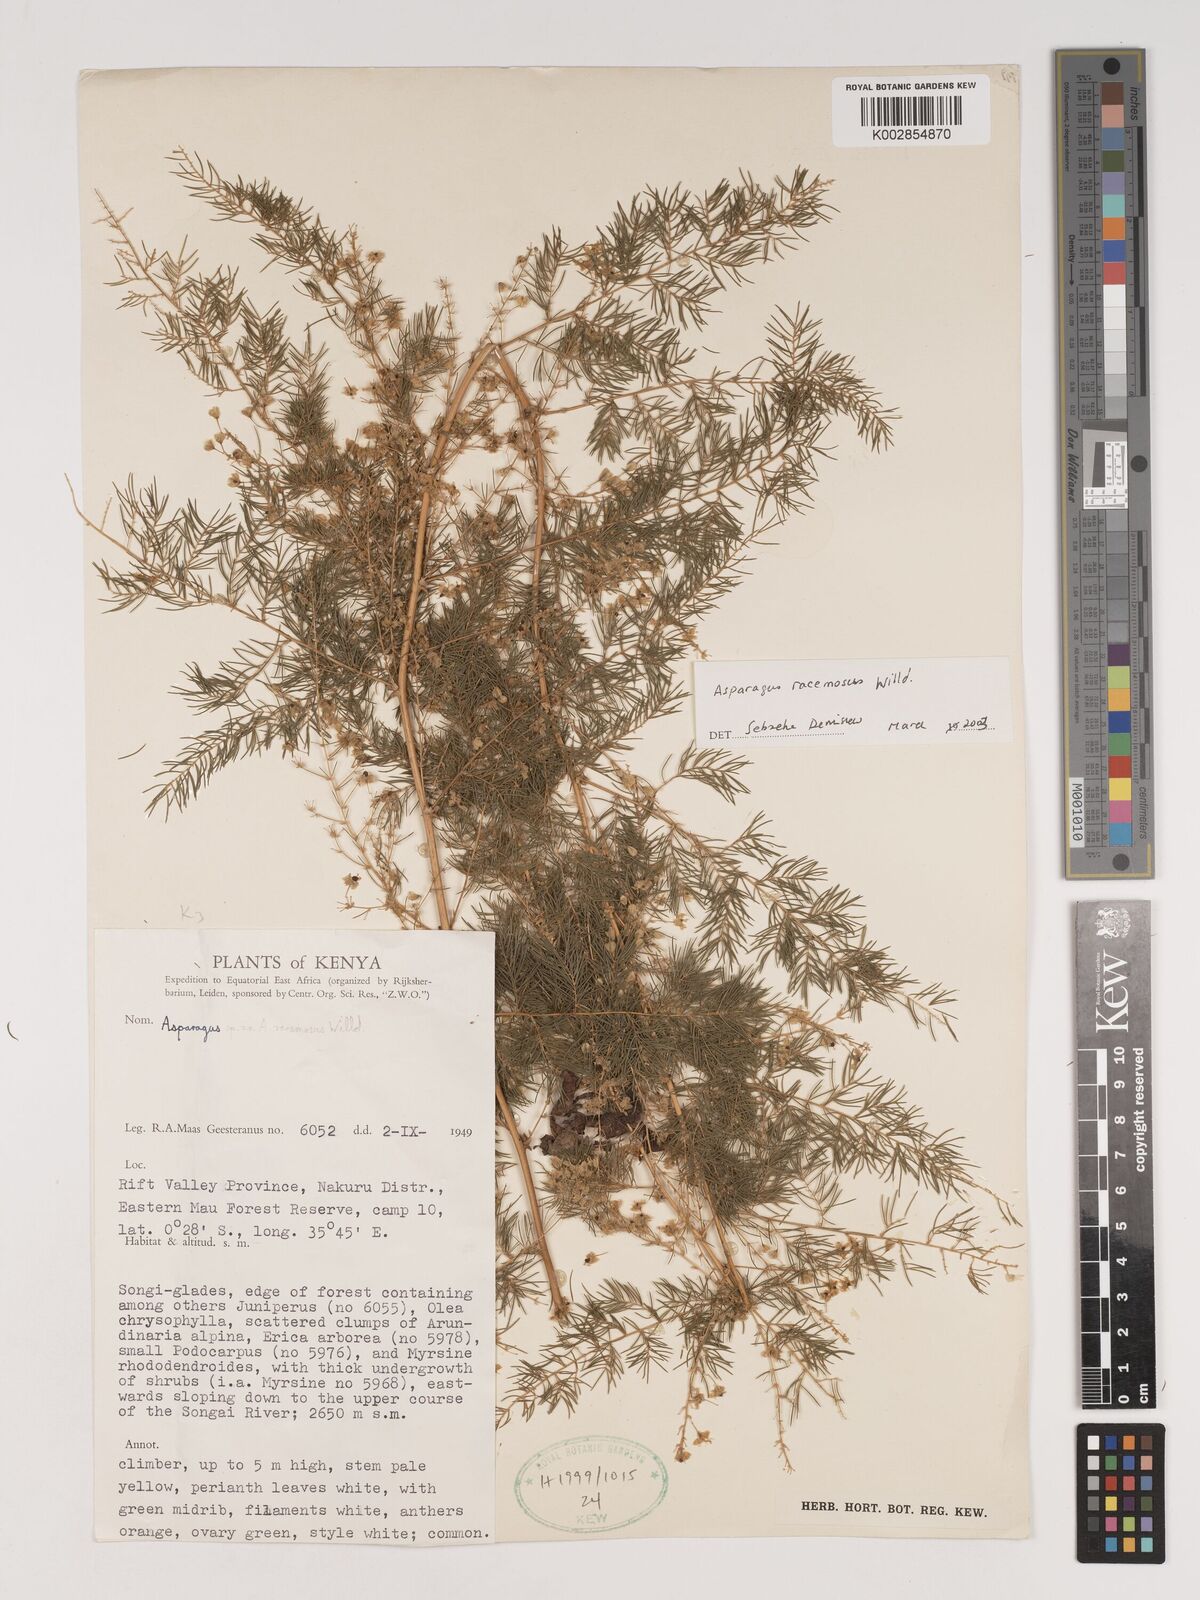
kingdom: Plantae
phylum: Tracheophyta
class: Liliopsida
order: Asparagales
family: Asparagaceae
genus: Asparagus
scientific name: Asparagus racemosus
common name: Asparagus-fern
